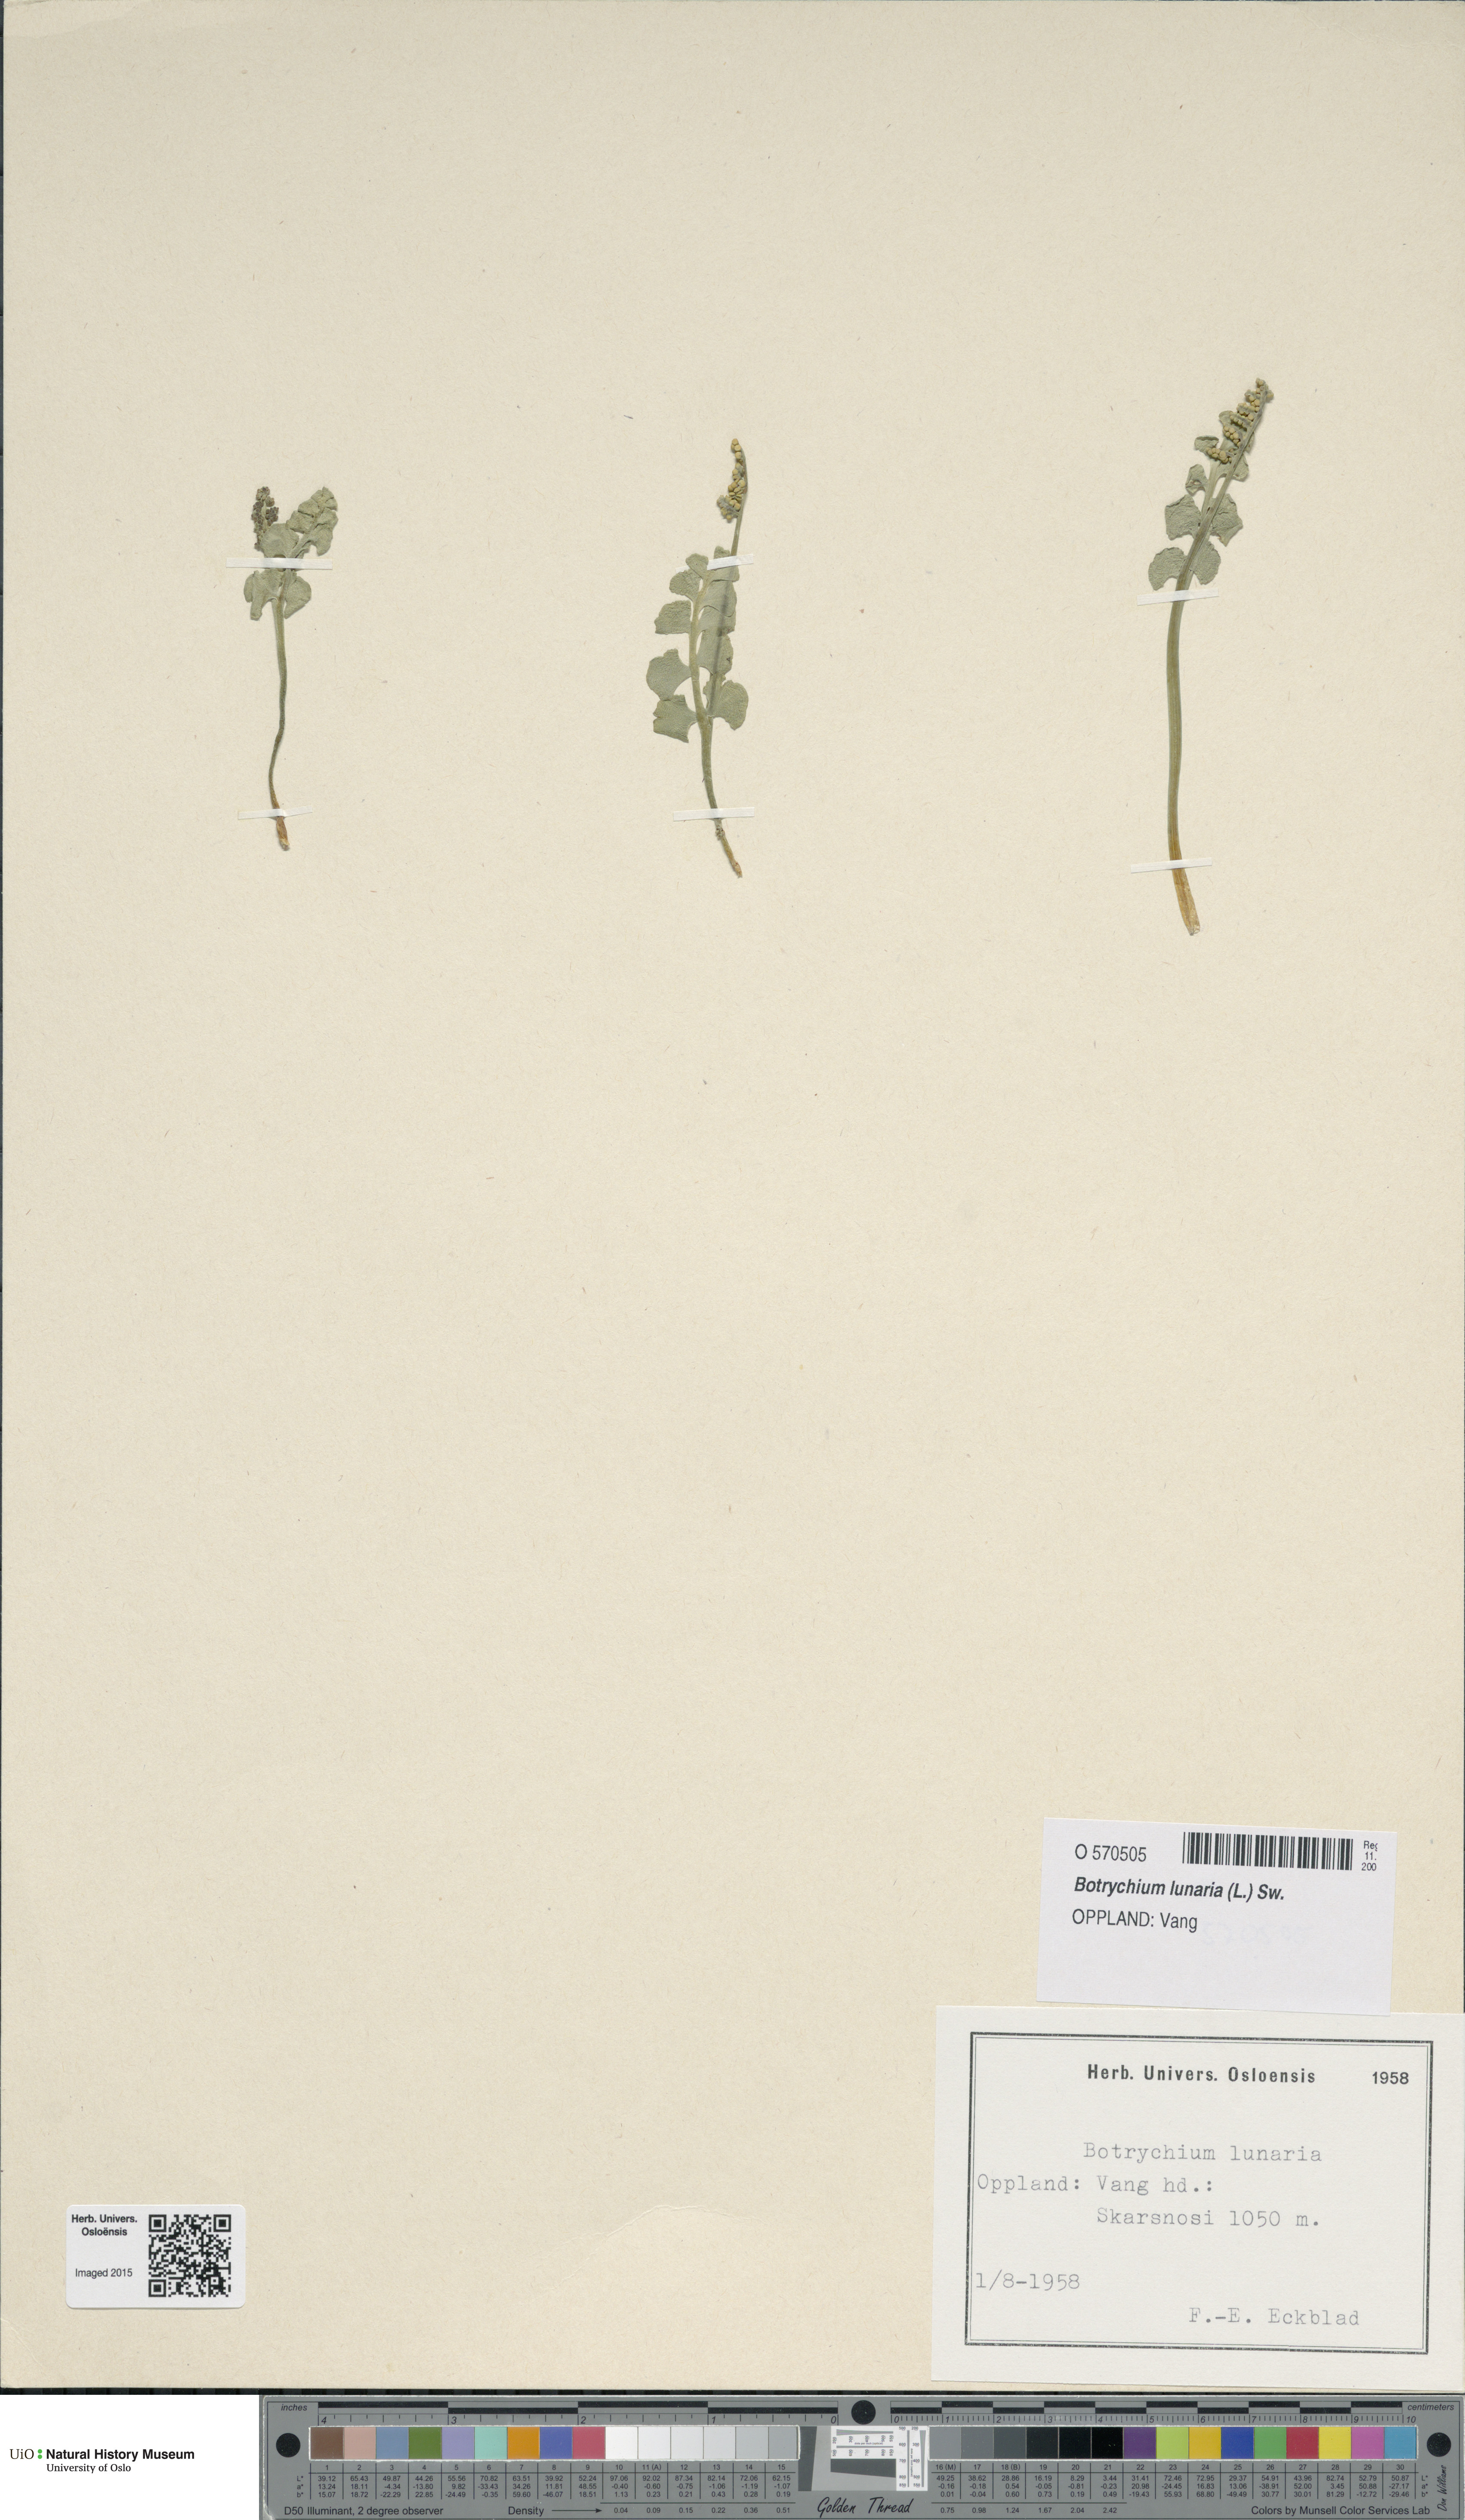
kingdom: Plantae
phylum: Tracheophyta
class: Polypodiopsida
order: Ophioglossales
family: Ophioglossaceae
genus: Botrychium
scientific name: Botrychium lunaria
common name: Moonwort
